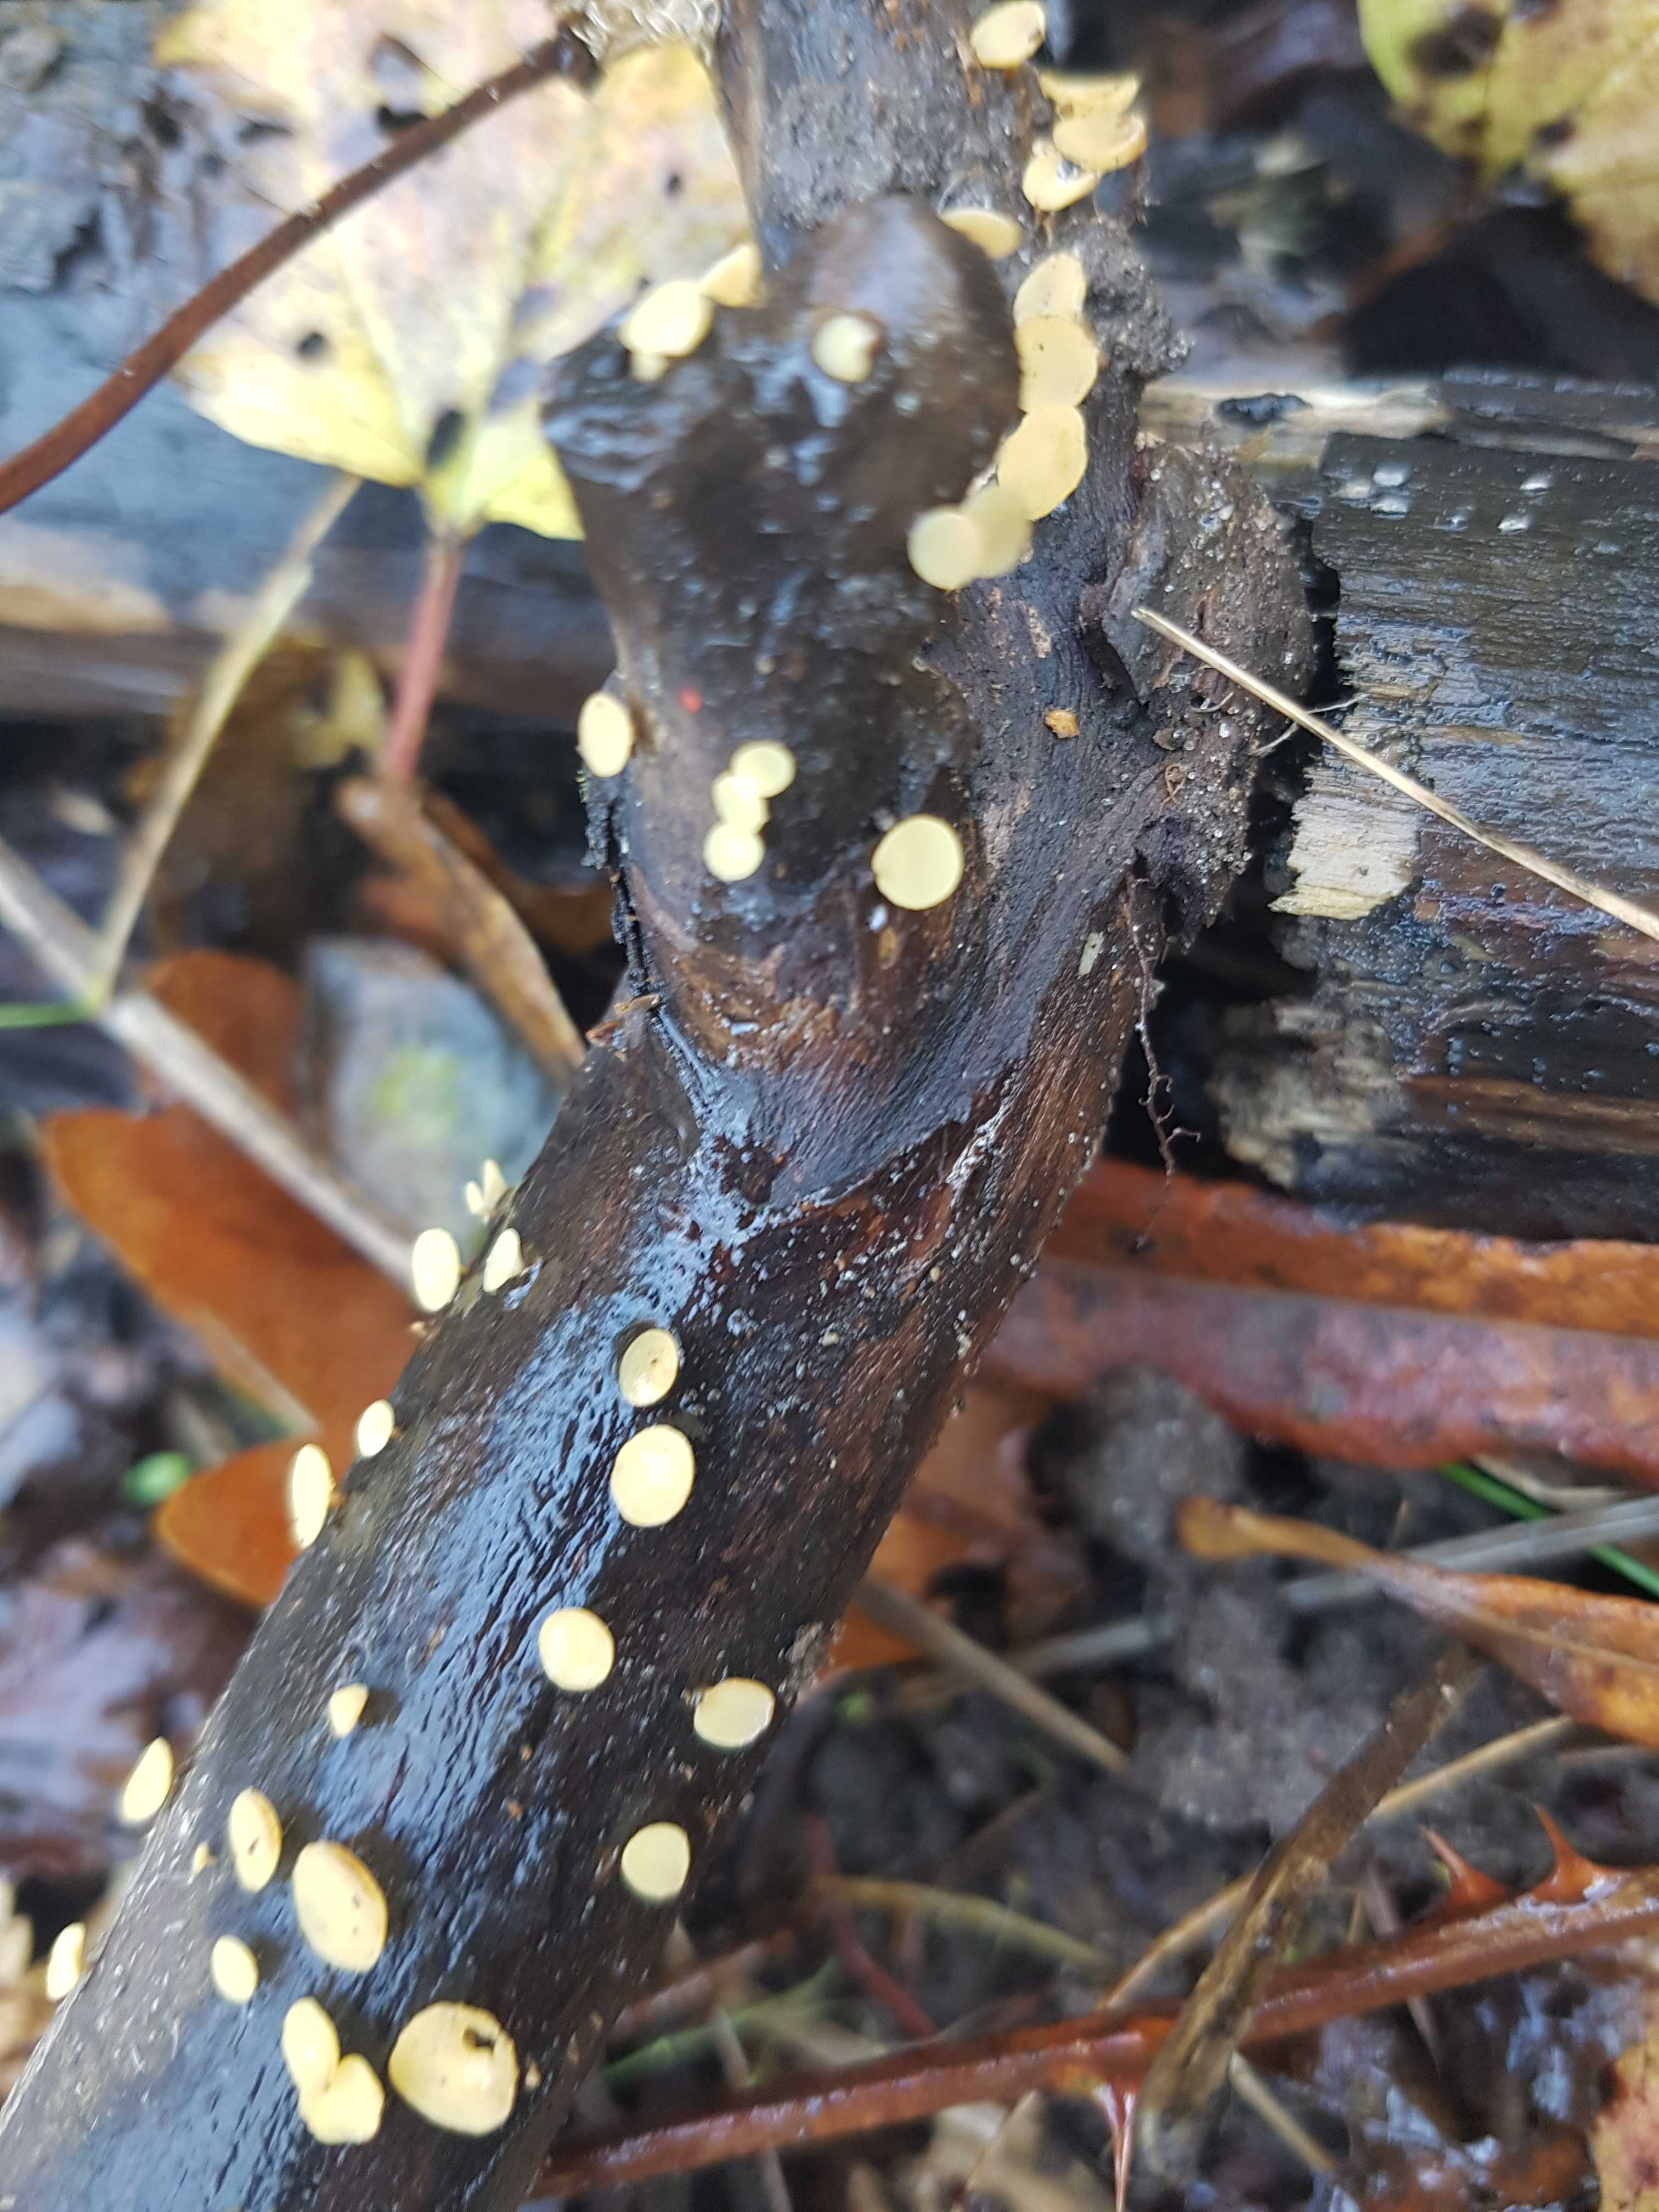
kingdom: Fungi
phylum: Ascomycota
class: Leotiomycetes
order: Helotiales
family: Helotiaceae
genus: Hymenoscyphus
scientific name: Hymenoscyphus
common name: stilkskive
